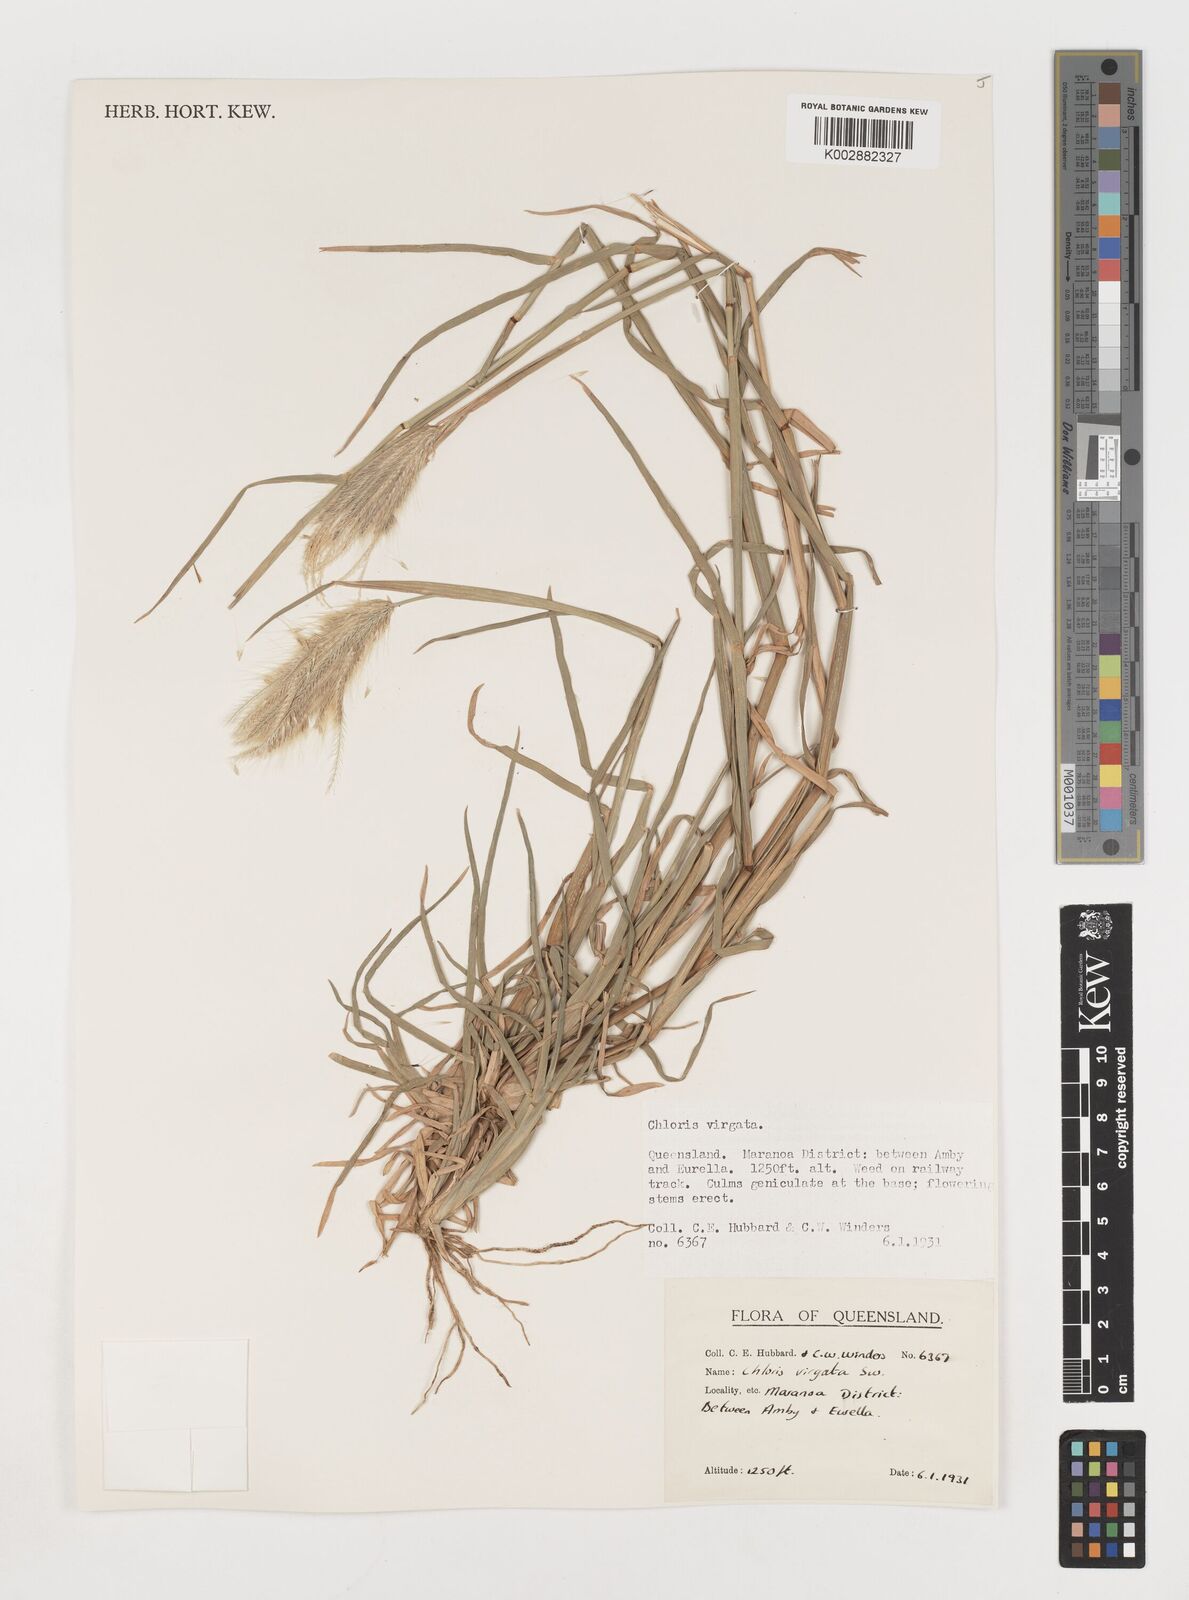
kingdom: Plantae
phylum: Tracheophyta
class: Liliopsida
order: Poales
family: Poaceae
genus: Chloris
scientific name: Chloris virgata
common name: Feathery rhodes-grass
